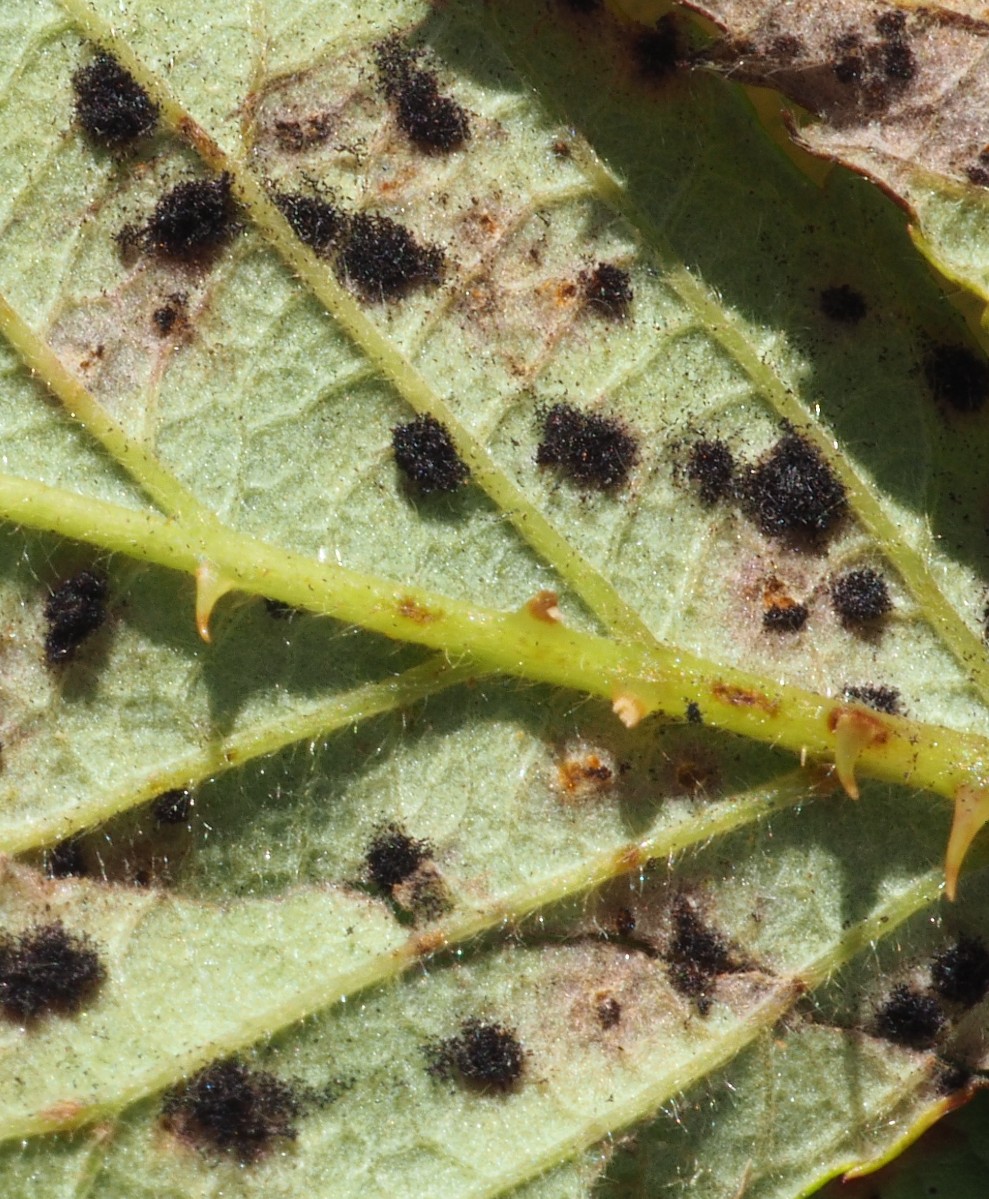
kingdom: Fungi
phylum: Basidiomycota
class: Pucciniomycetes
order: Pucciniales
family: Phragmidiaceae
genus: Phragmidium
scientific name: Phragmidium violaceum
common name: violet flercellerust
